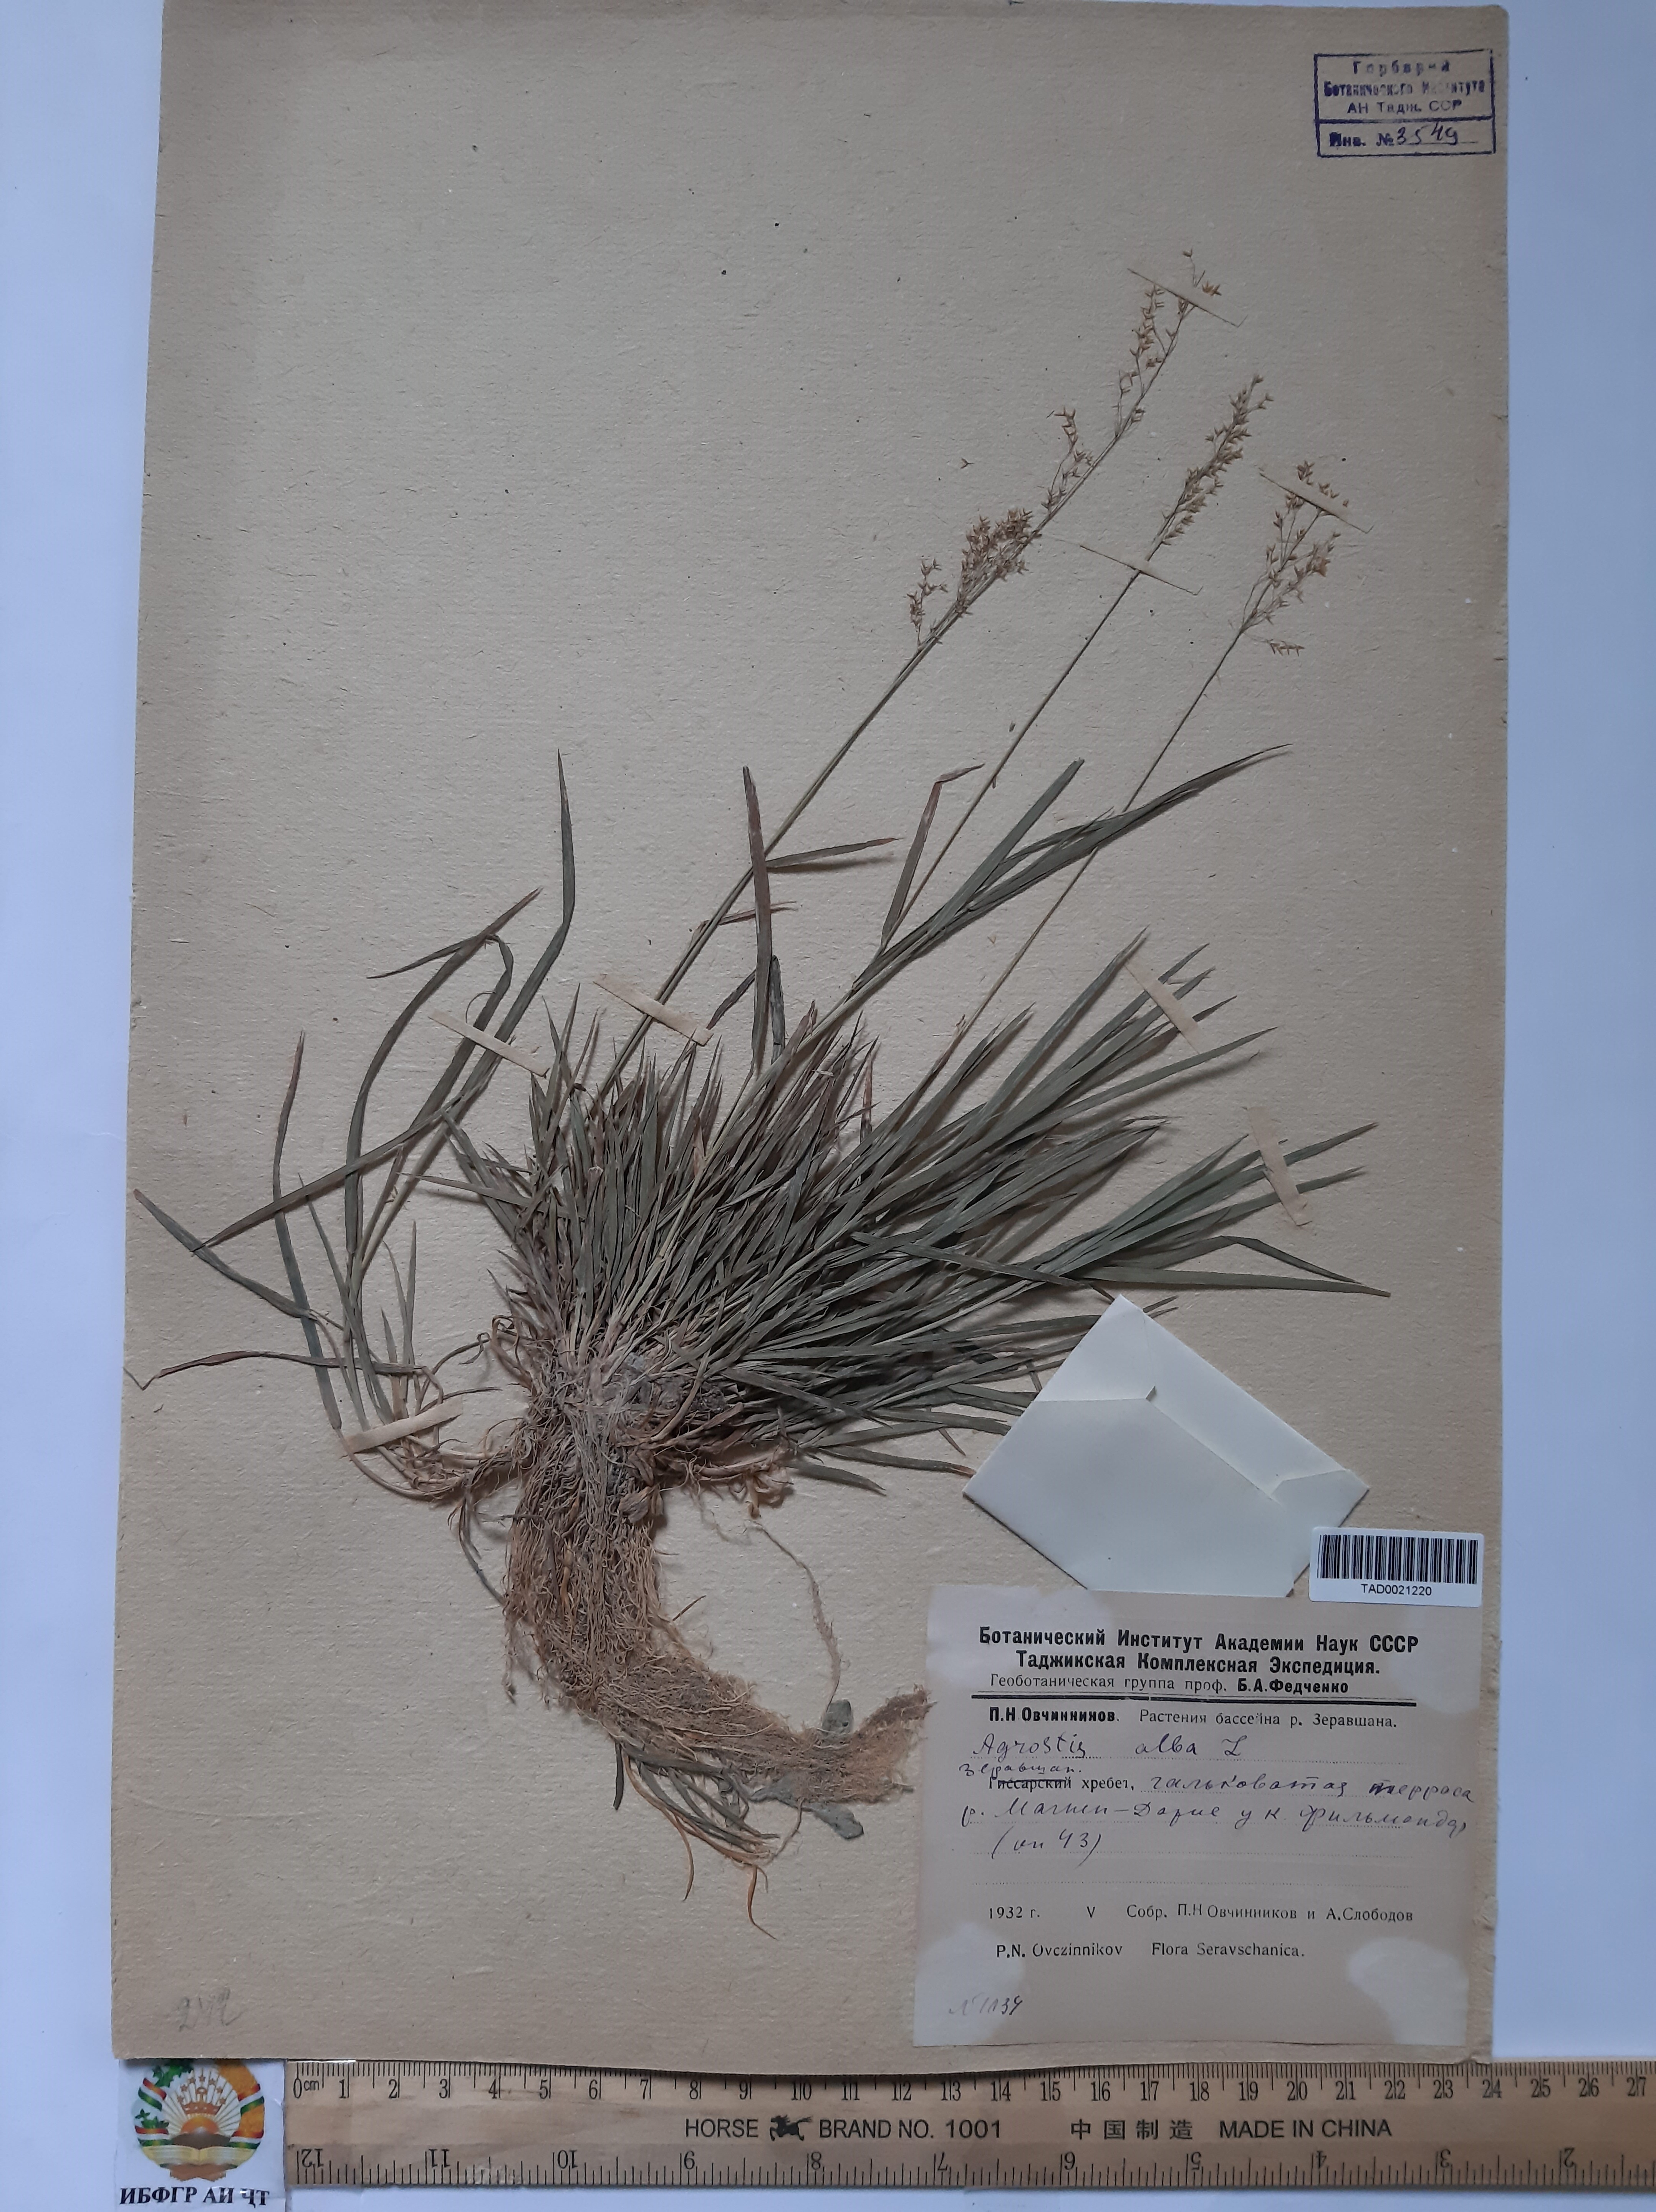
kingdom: Plantae
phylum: Tracheophyta
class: Liliopsida
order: Poales
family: Poaceae
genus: Poa
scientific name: Poa nemoralis
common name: Wood bluegrass
